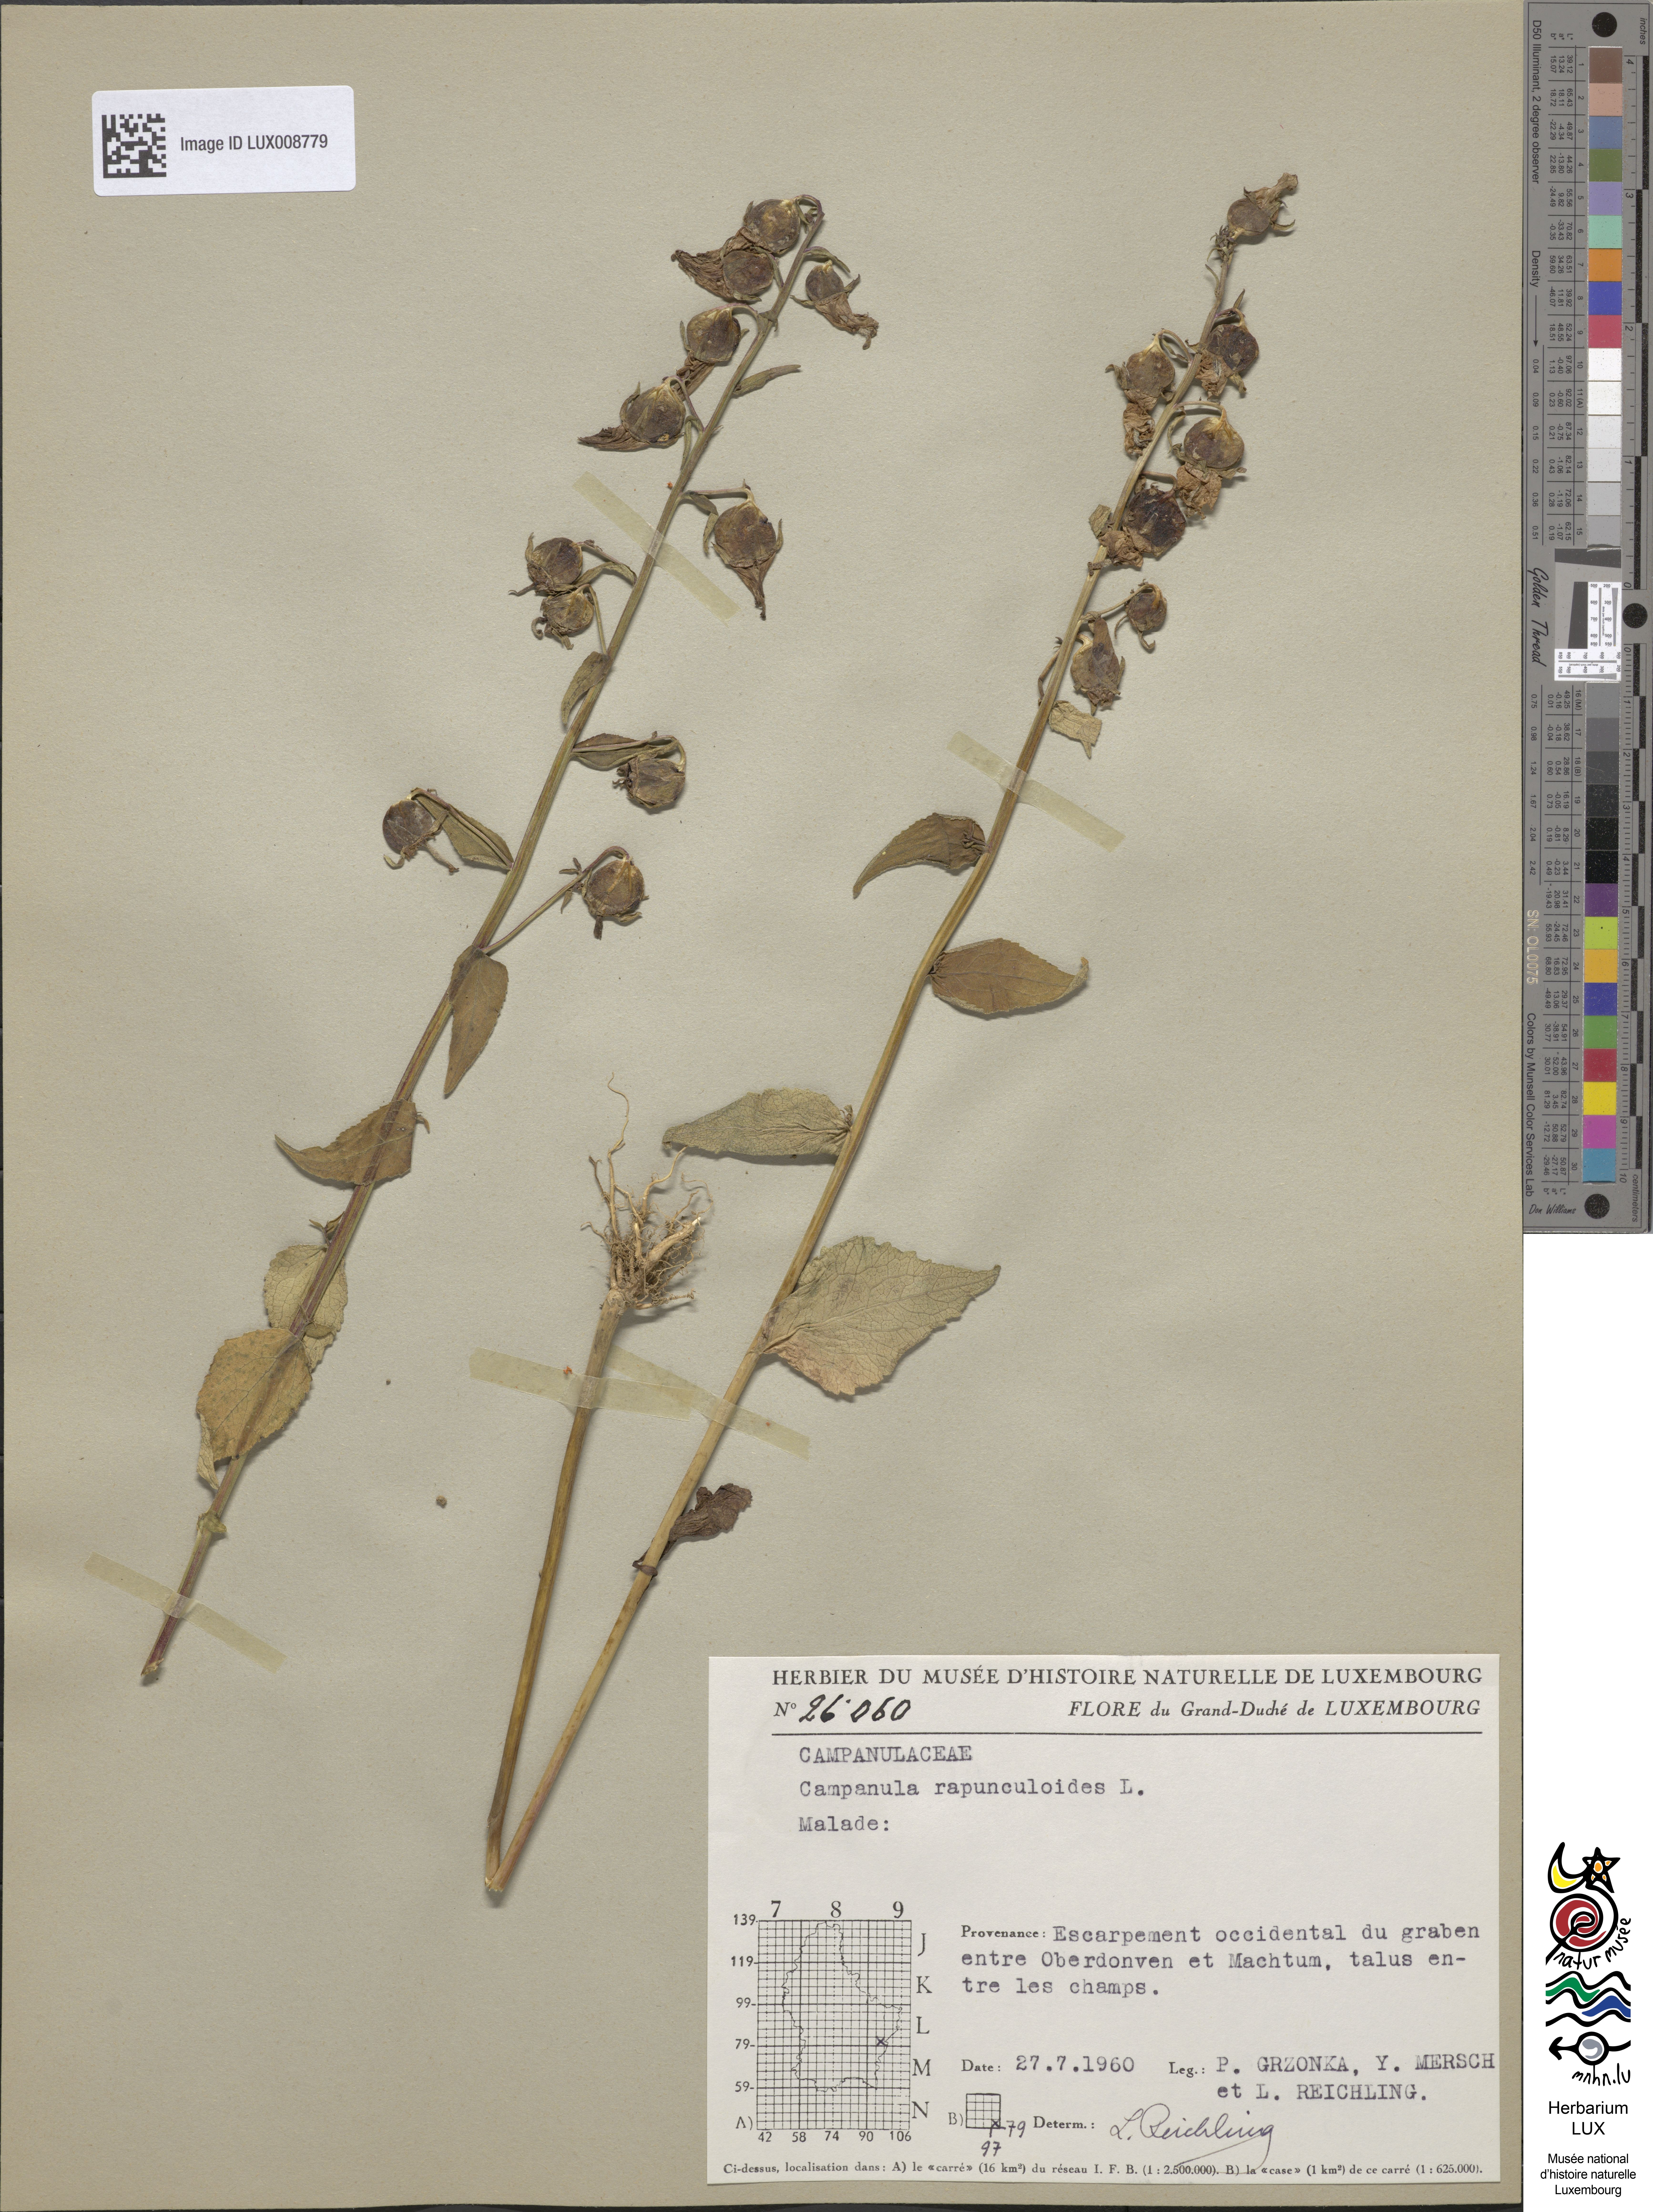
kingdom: Plantae
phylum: Tracheophyta
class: Magnoliopsida
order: Asterales
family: Campanulaceae
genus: Campanula
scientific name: Campanula rapunculoides
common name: Creeping bellflower
